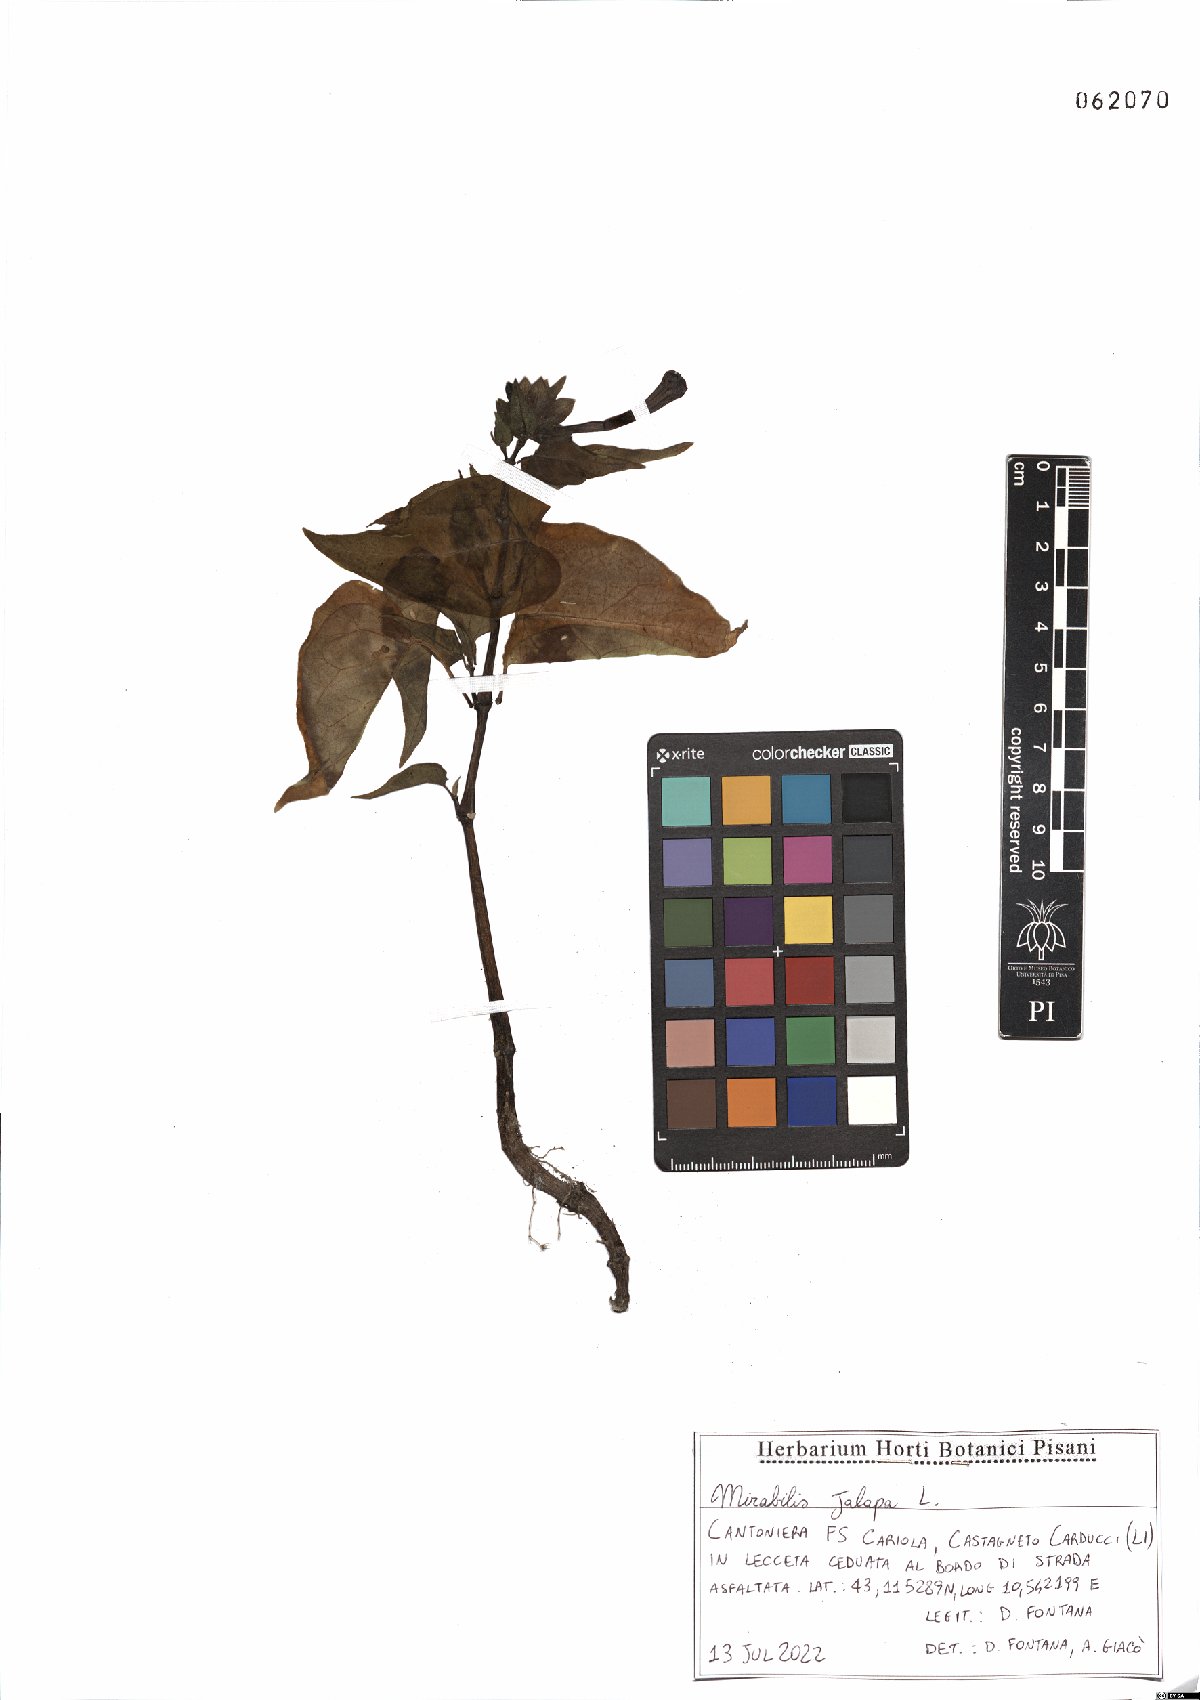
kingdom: Plantae
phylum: Tracheophyta
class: Magnoliopsida
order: Caryophyllales
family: Nyctaginaceae
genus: Mirabilis
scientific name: Mirabilis jalapa
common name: Marvel-of-peru
